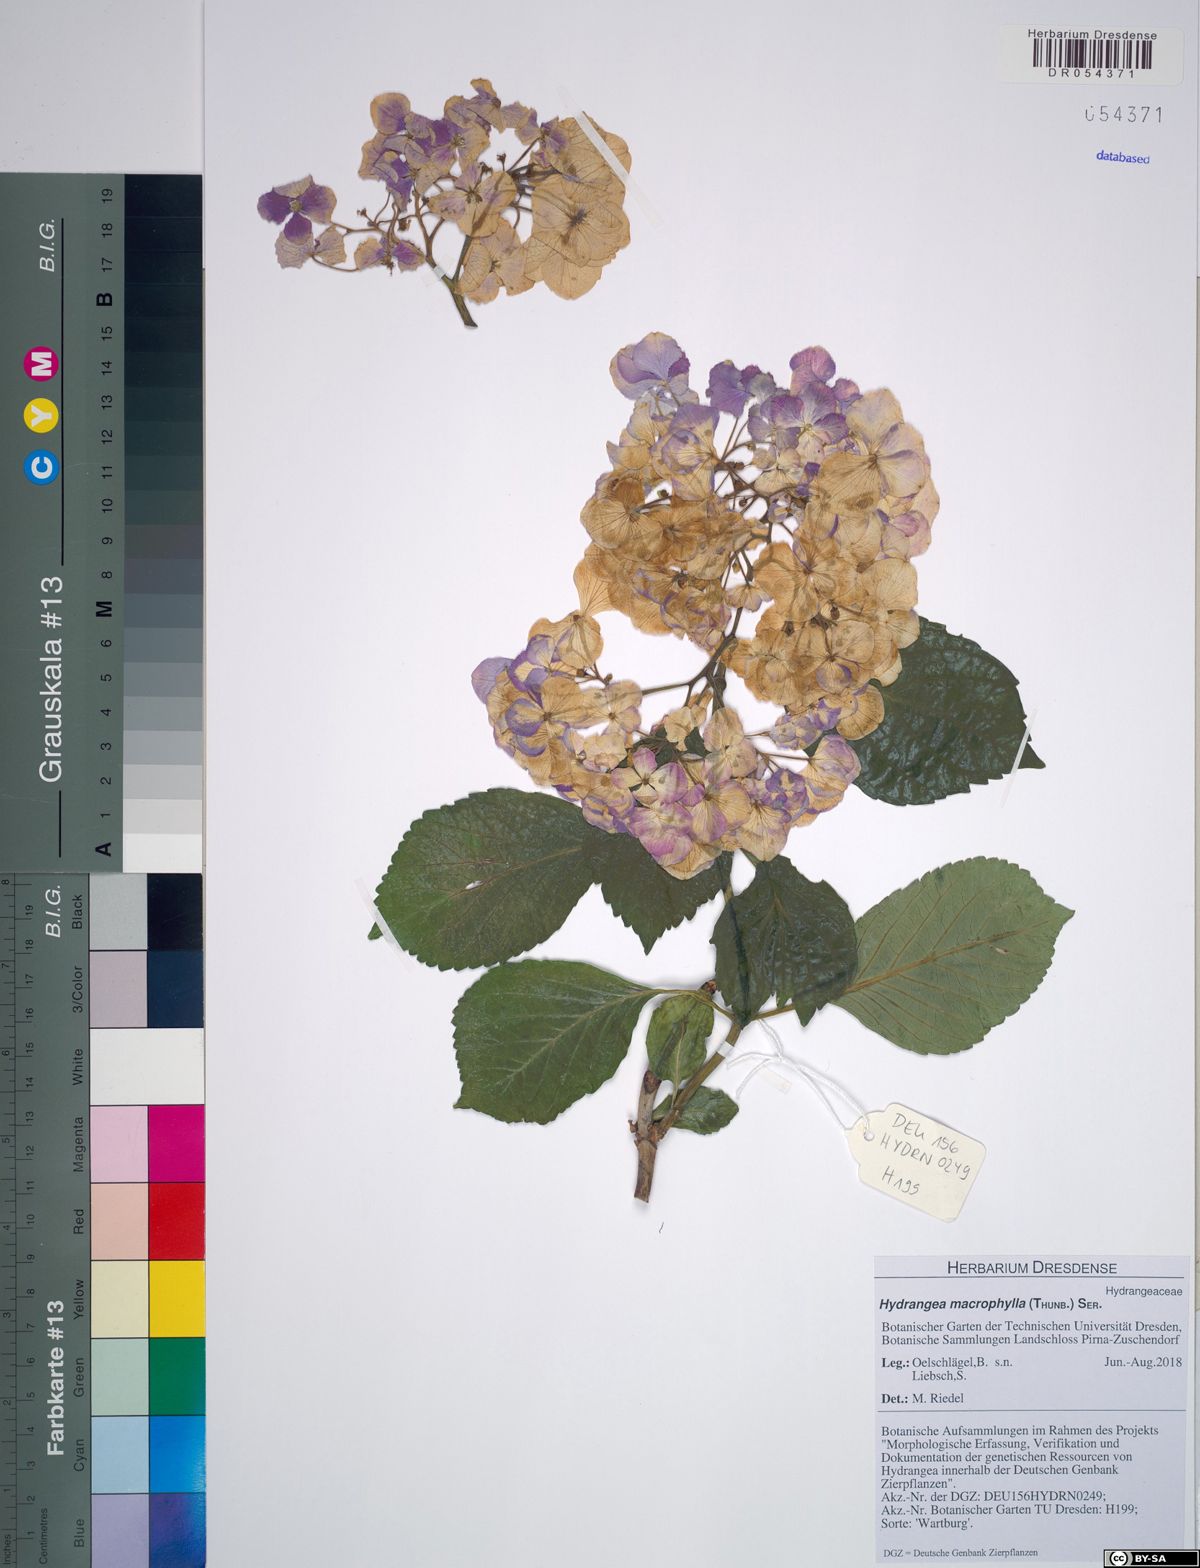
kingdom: Plantae
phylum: Tracheophyta
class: Magnoliopsida
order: Cornales
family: Hydrangeaceae
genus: Hydrangea
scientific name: Hydrangea macrophylla
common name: Hydrangea
